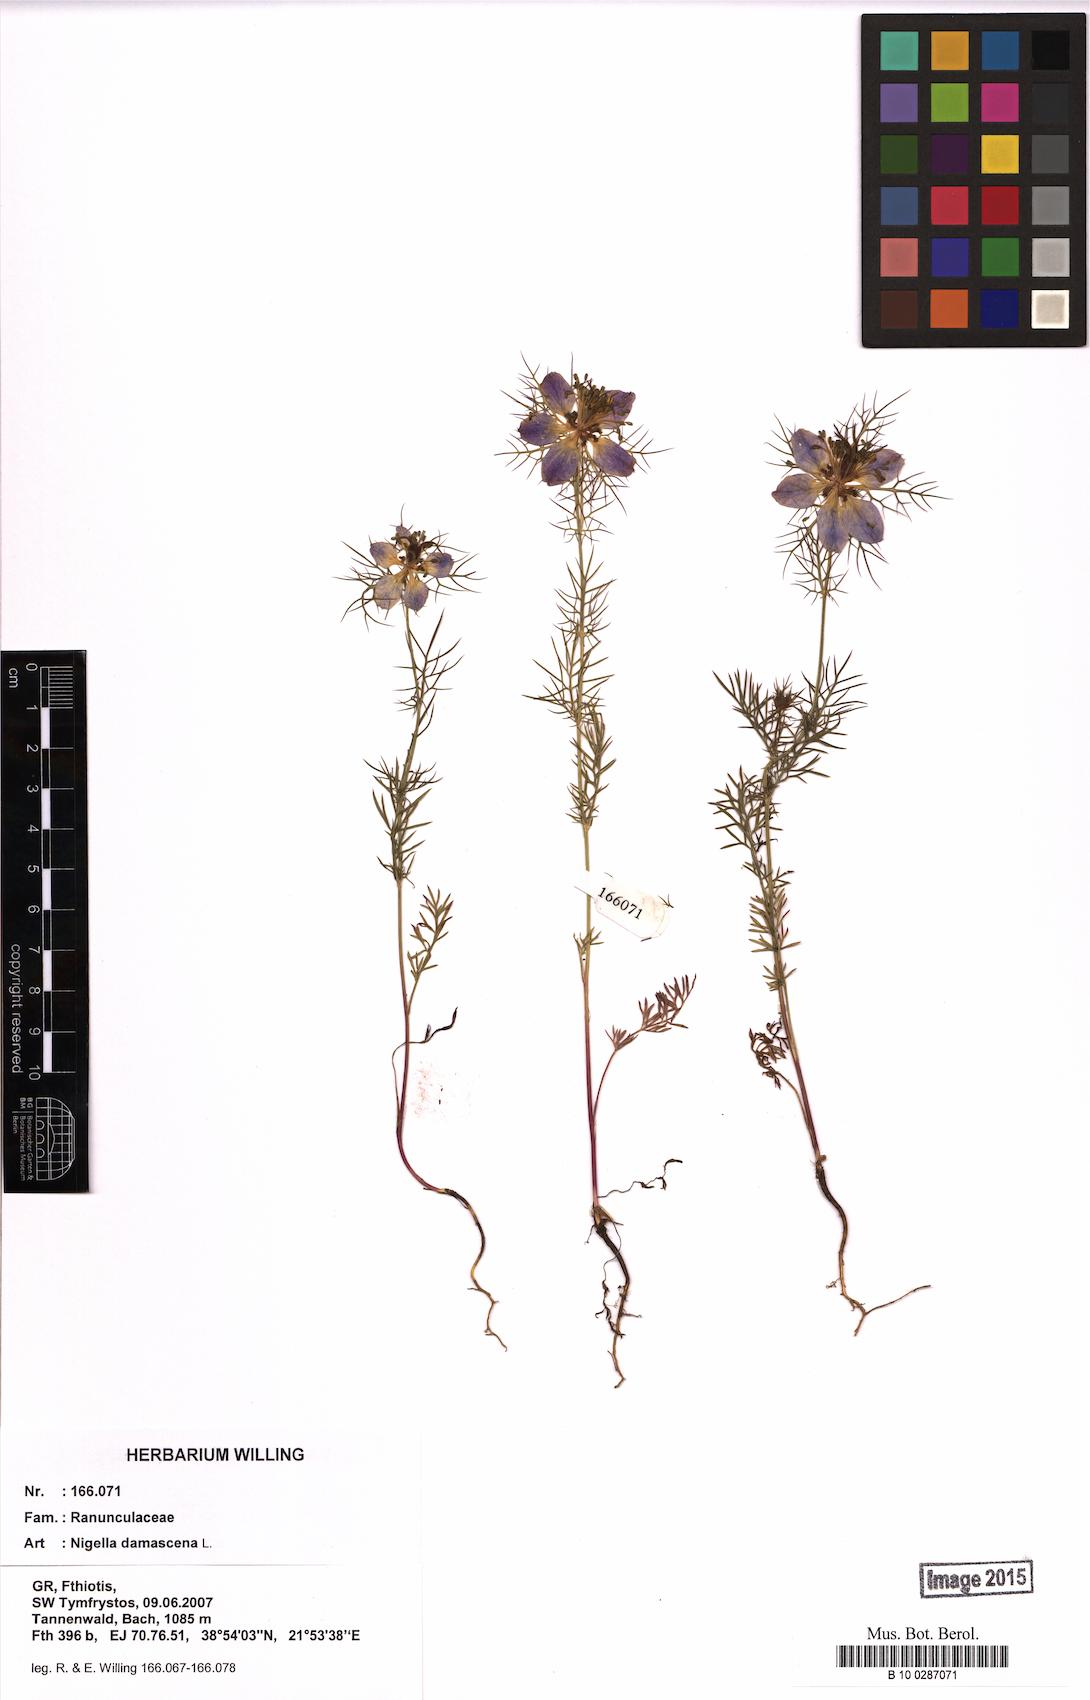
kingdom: Plantae
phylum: Tracheophyta
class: Magnoliopsida
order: Ranunculales
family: Ranunculaceae
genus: Nigella
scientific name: Nigella damascena
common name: Love-in-a-mist
